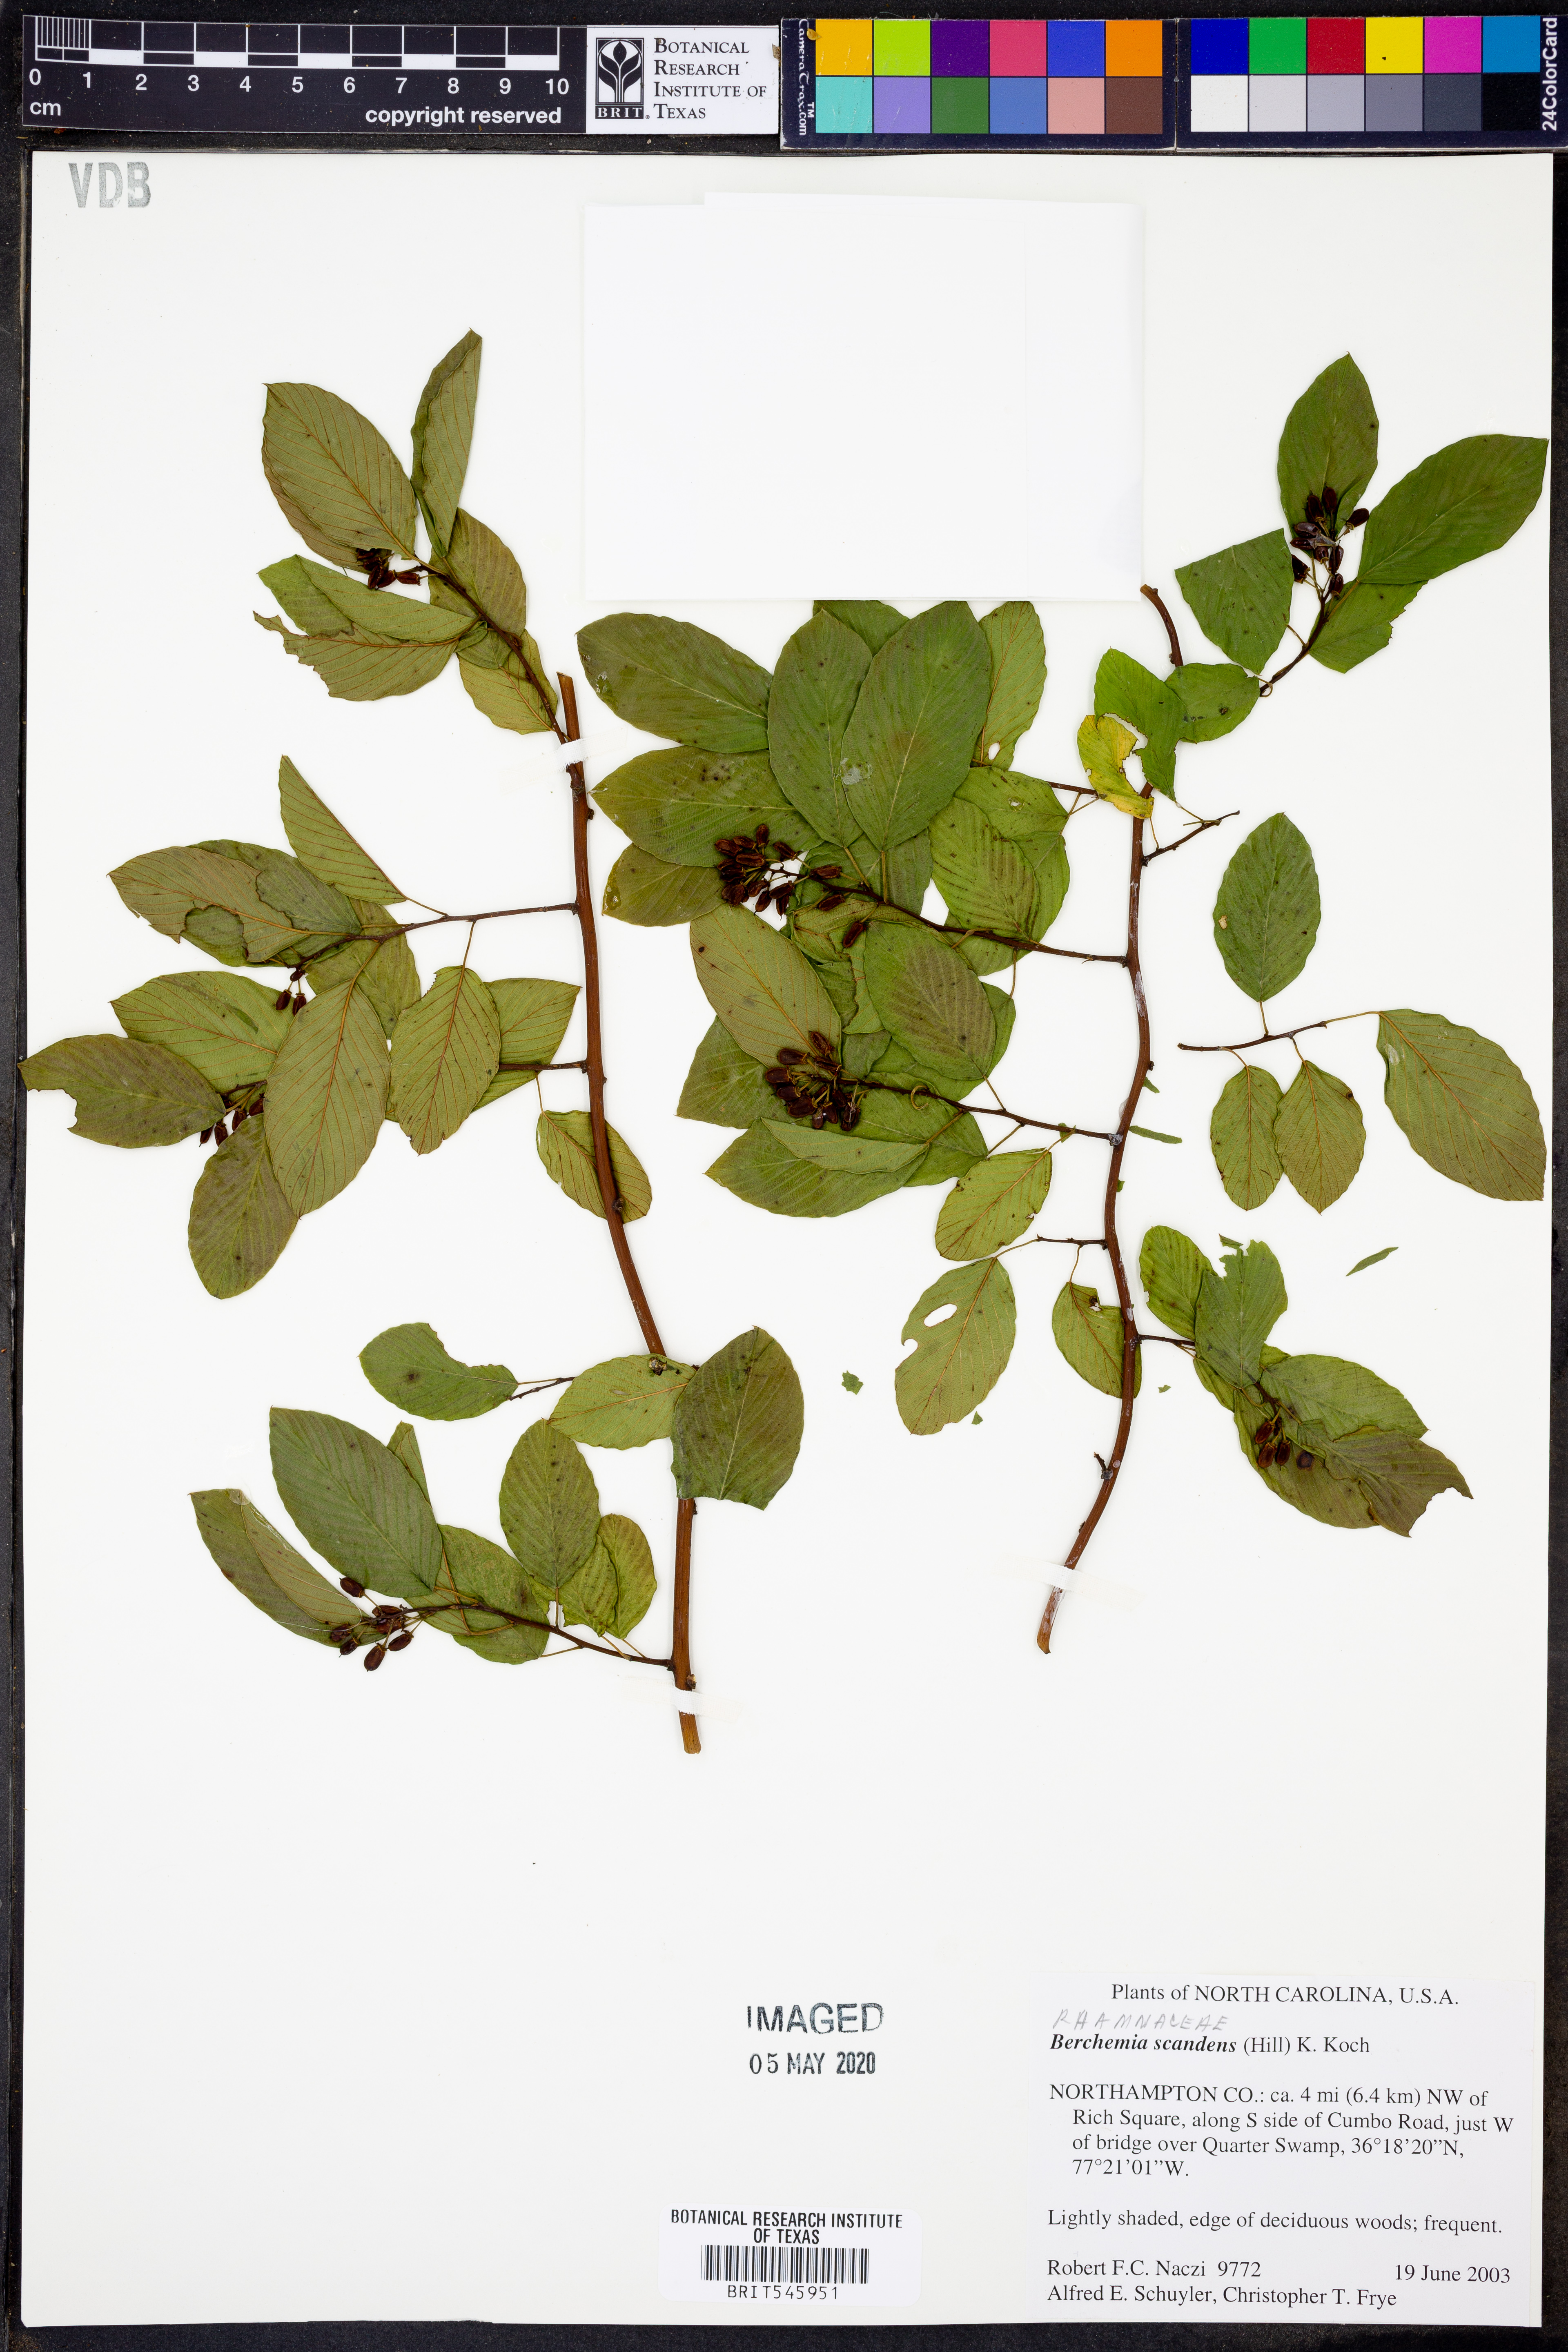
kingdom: Plantae
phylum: Tracheophyta
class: Magnoliopsida
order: Rosales
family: Rhamnaceae
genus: Berchemia
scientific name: Berchemia scandens
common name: Supplejack
